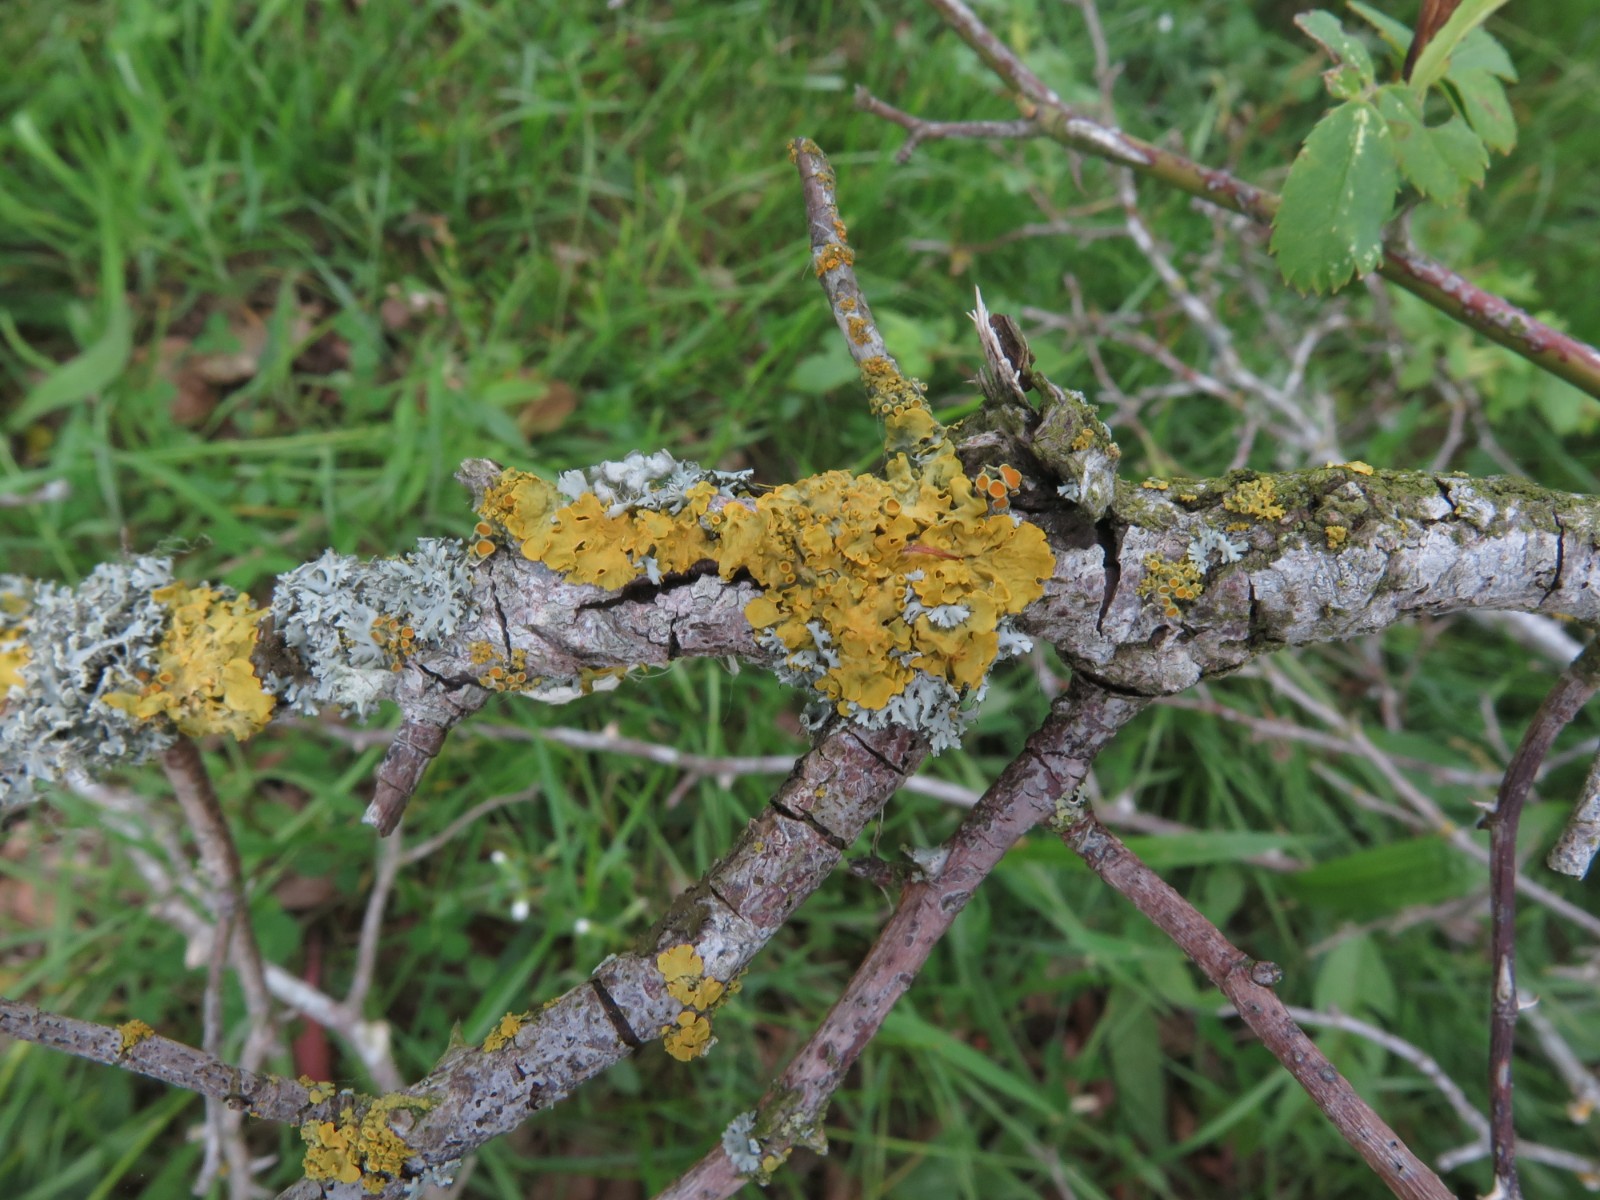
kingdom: Fungi
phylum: Ascomycota
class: Lecanoromycetes
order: Teloschistales
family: Teloschistaceae
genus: Xanthoria
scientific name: Xanthoria parietina
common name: almindelig væggelav
